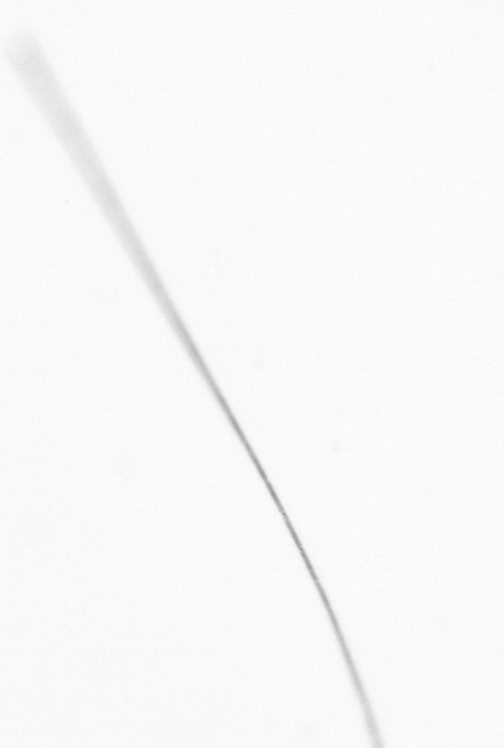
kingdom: Chromista
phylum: Ochrophyta
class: Bacillariophyceae
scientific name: Bacillariophyceae
